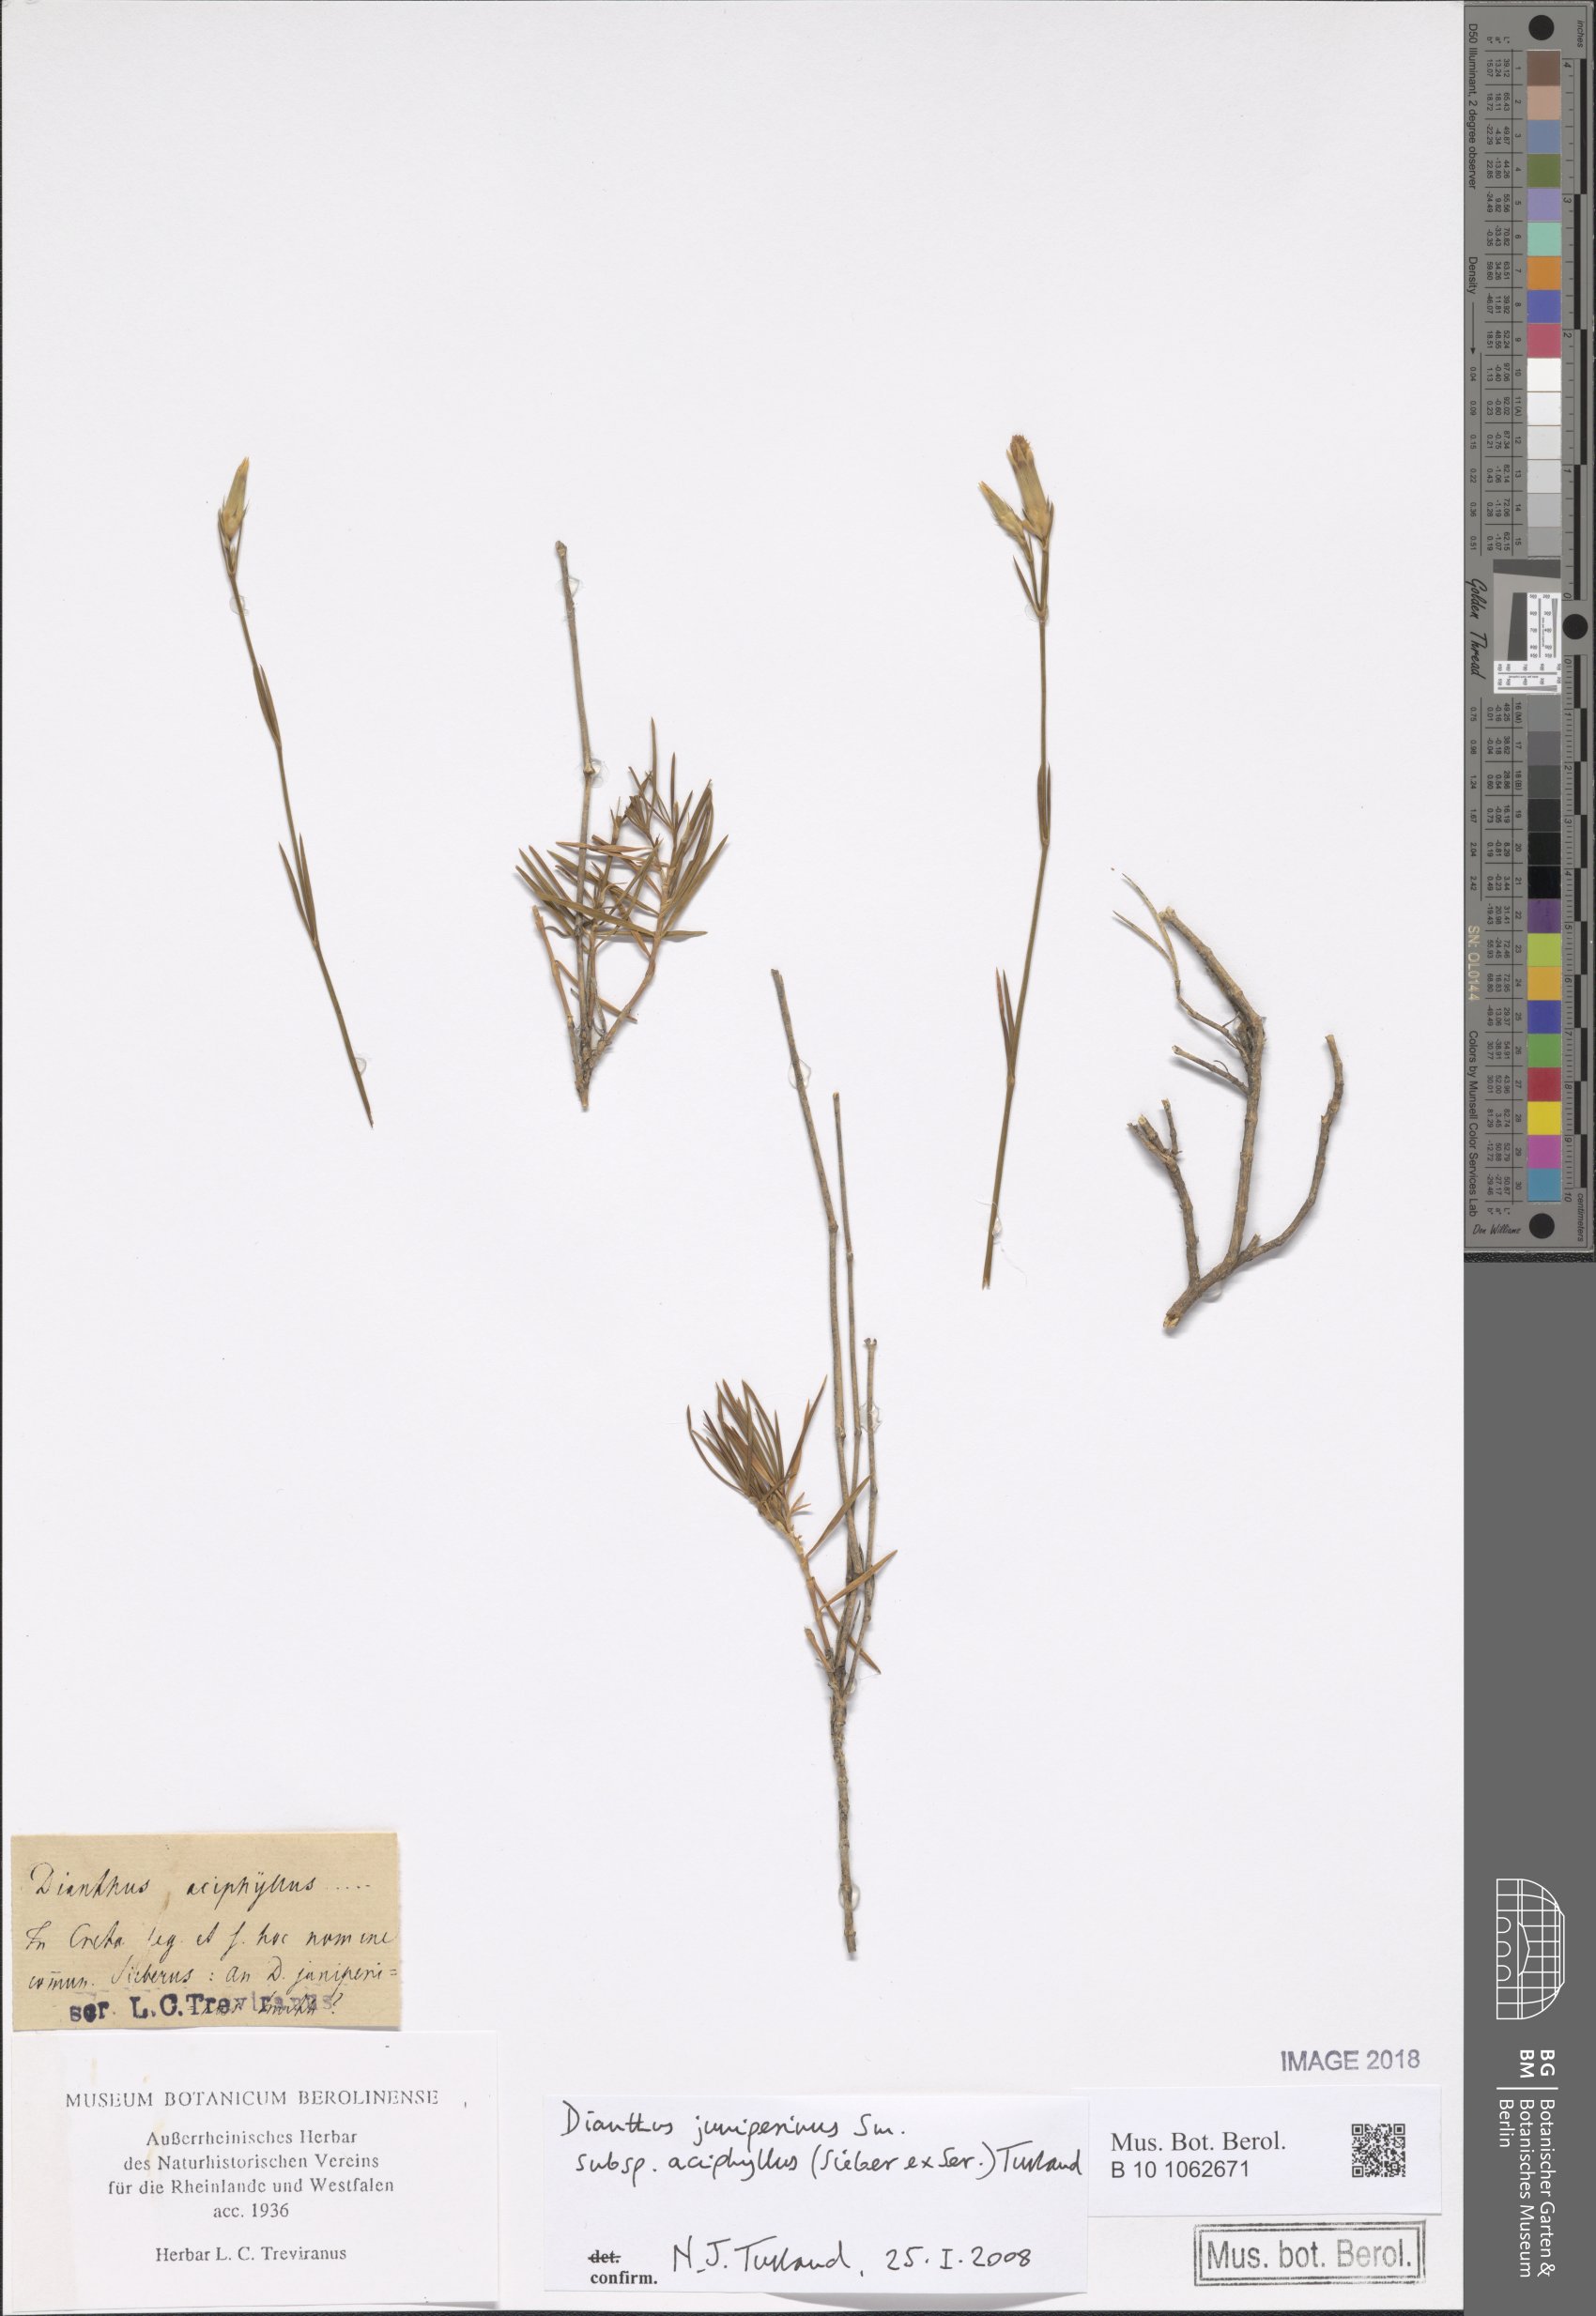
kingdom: Plantae
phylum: Tracheophyta
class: Magnoliopsida
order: Caryophyllales
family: Caryophyllaceae
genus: Dianthus
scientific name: Dianthus juniperinus
